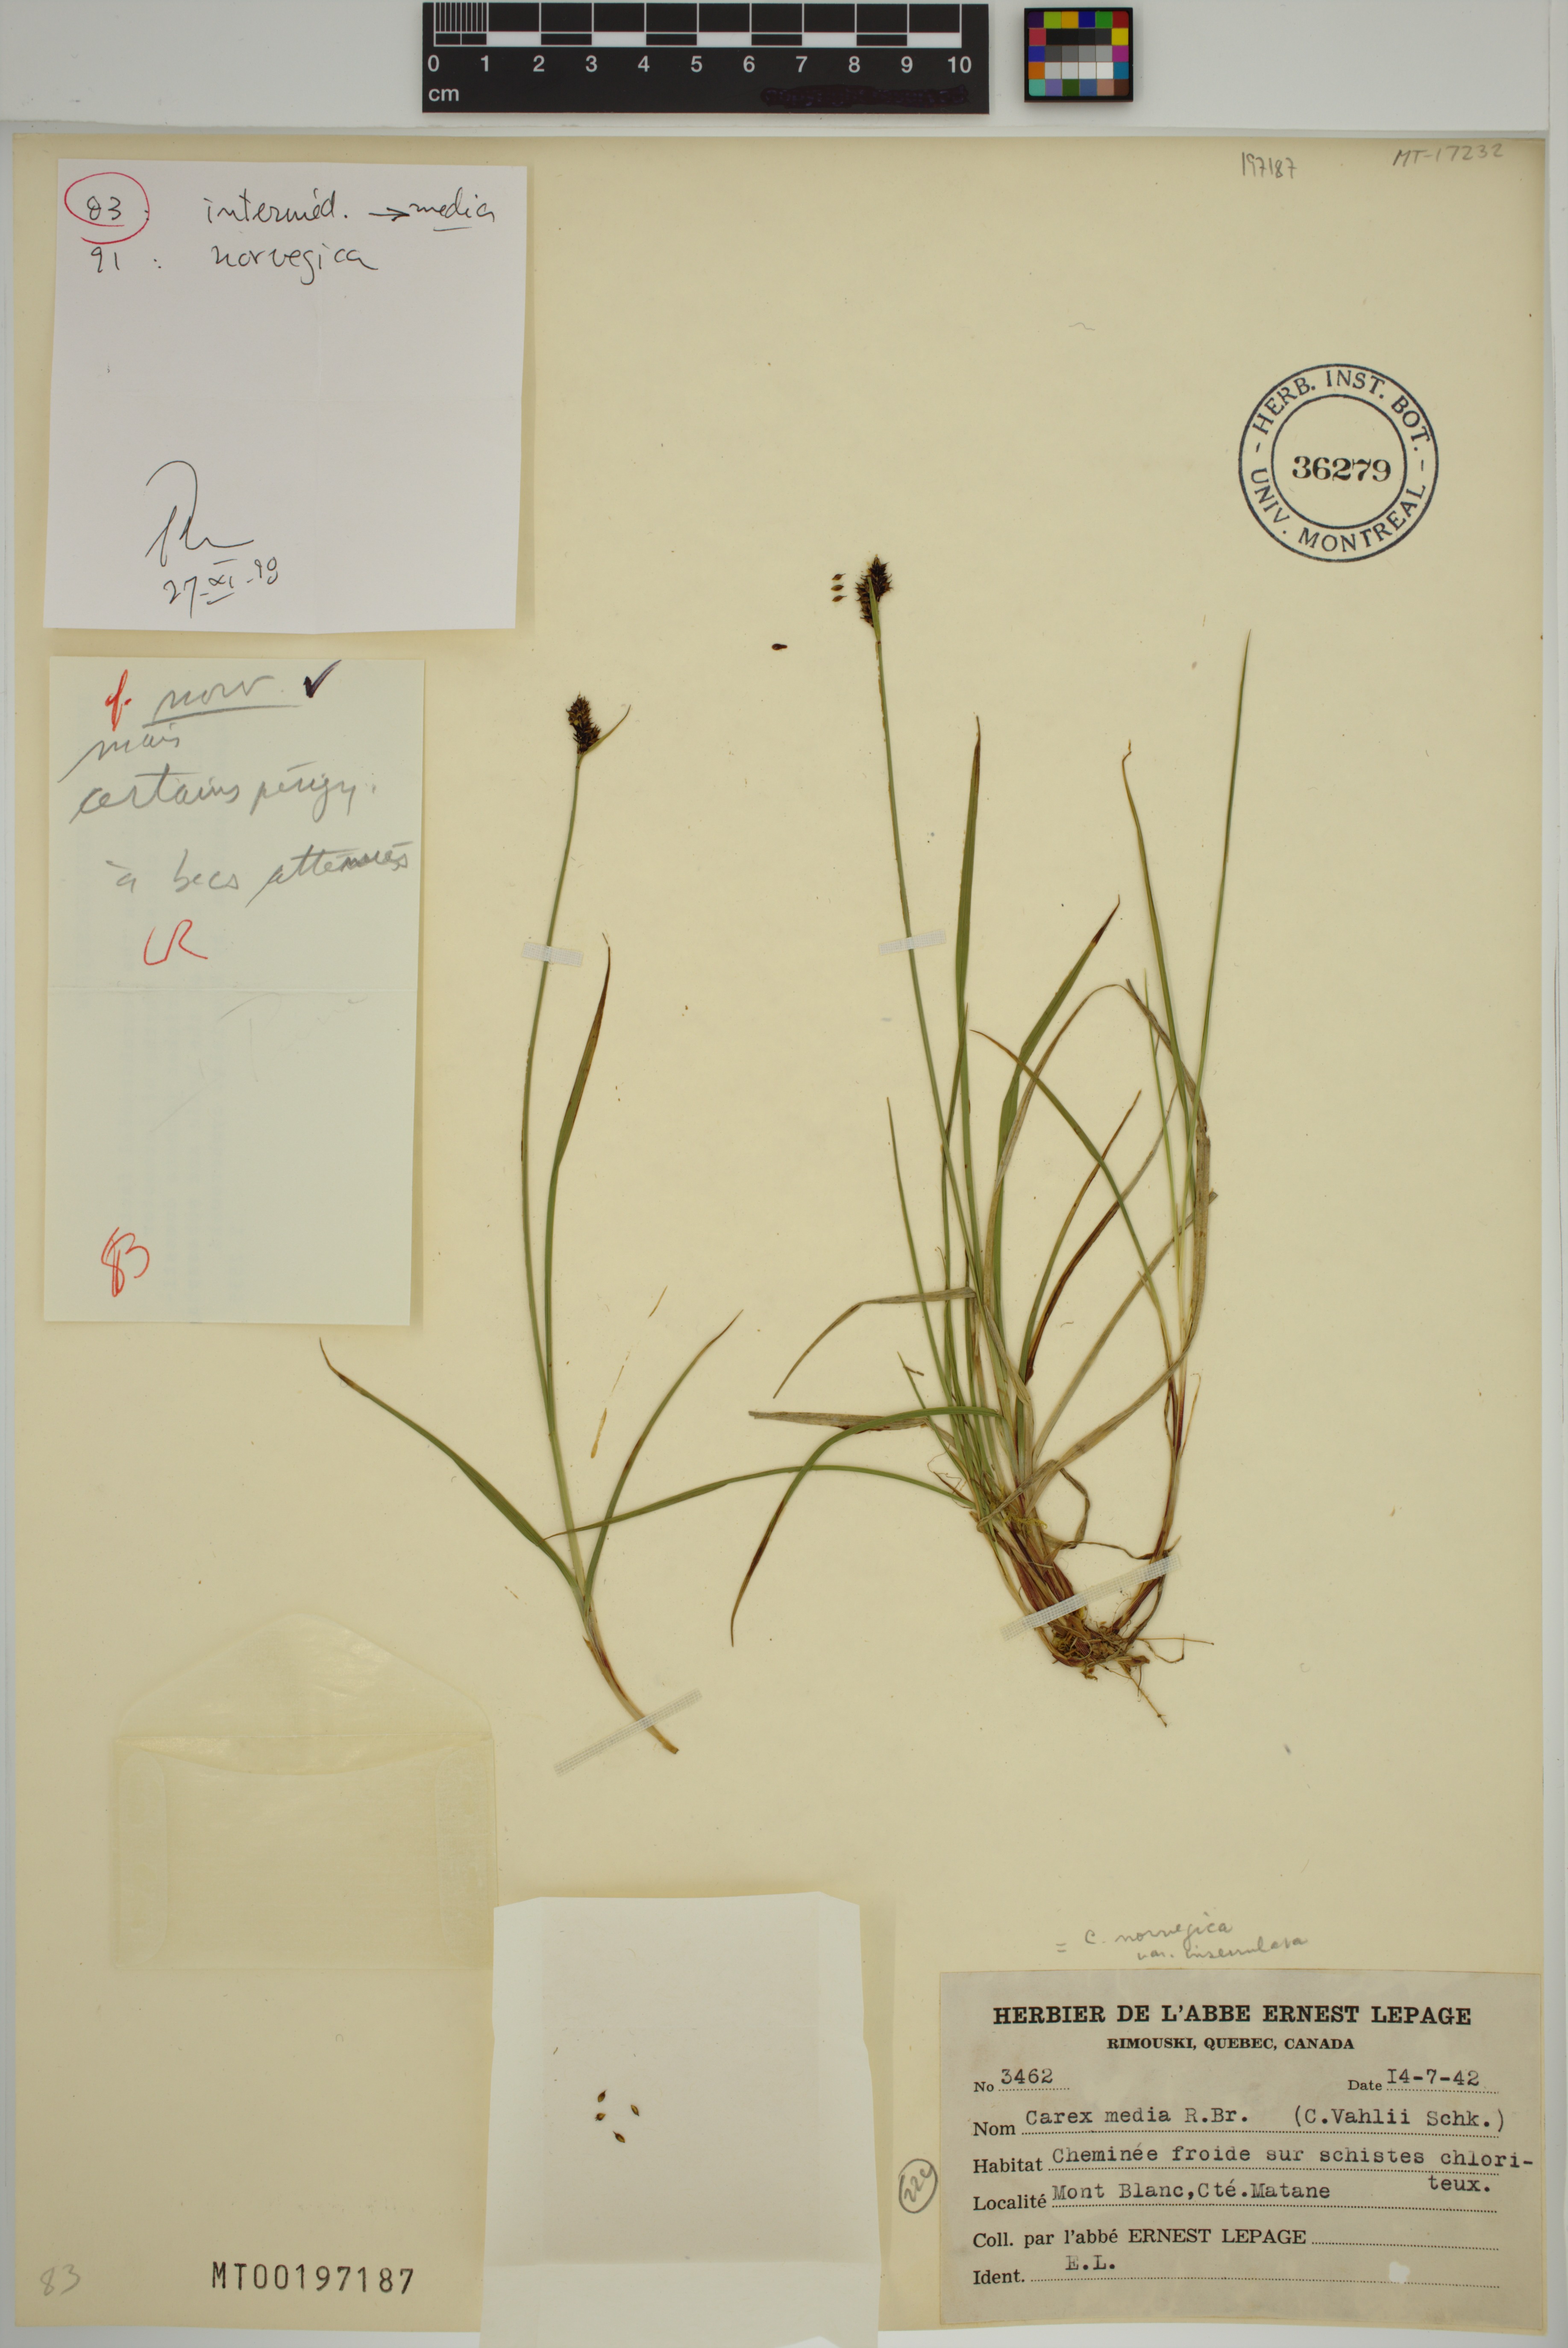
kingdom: Plantae
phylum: Tracheophyta
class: Liliopsida
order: Poales
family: Cyperaceae
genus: Carex
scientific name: Carex norvegica
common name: Close-headed alpine-sedge
